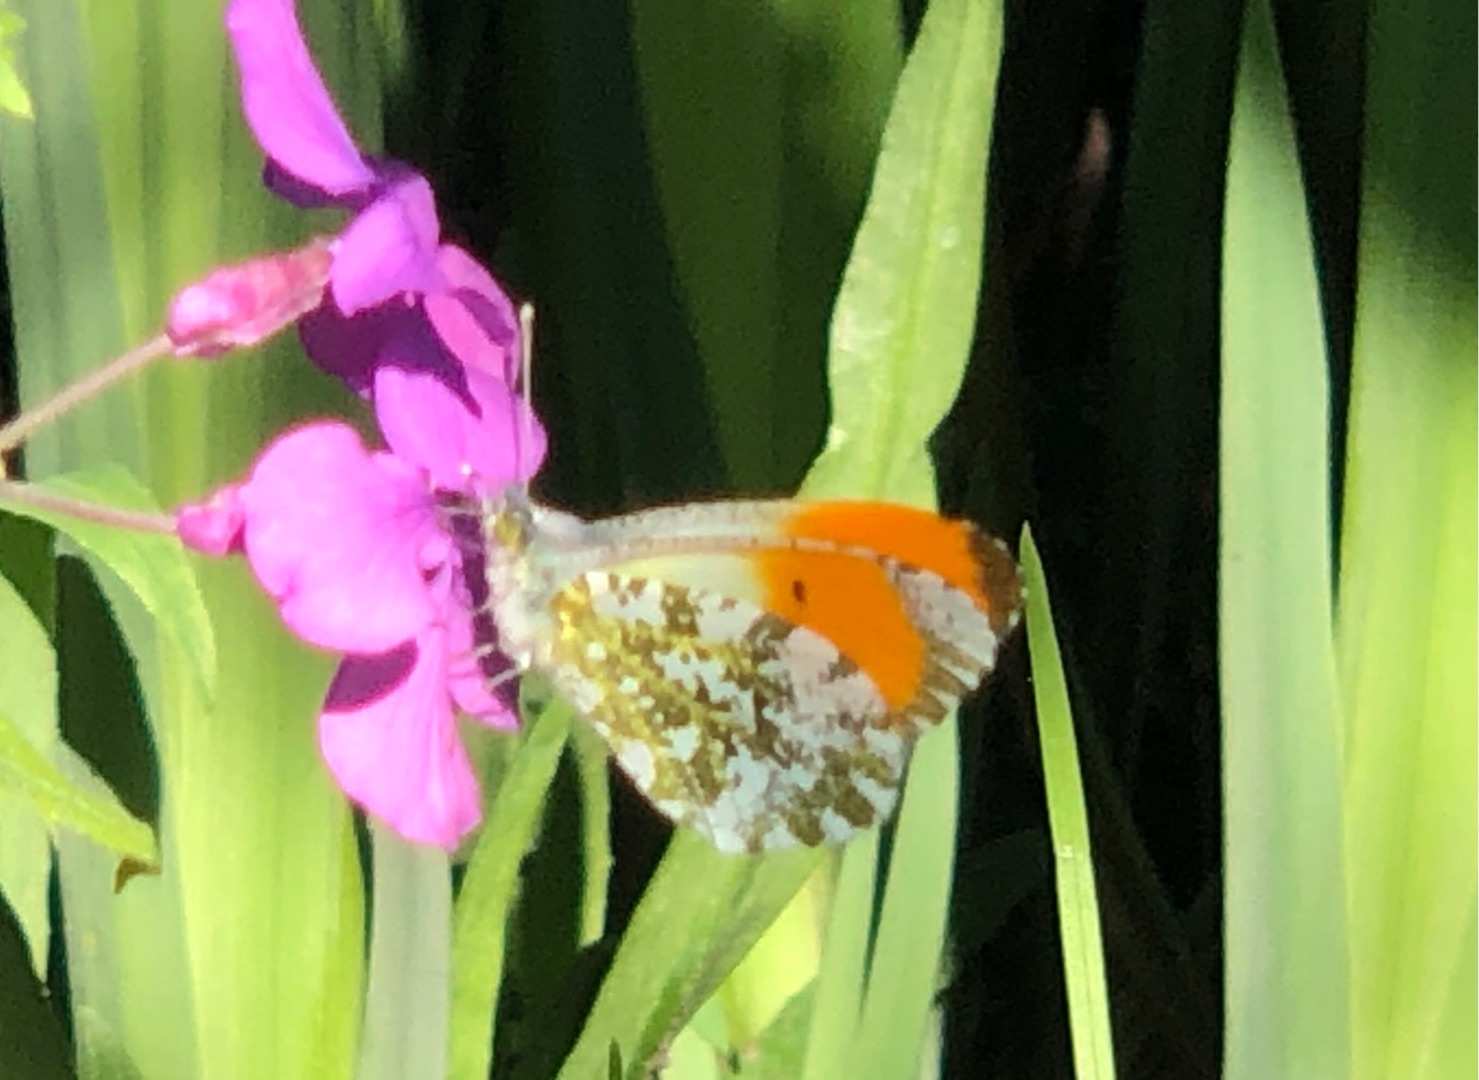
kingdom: Animalia
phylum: Arthropoda
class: Insecta
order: Lepidoptera
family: Pieridae
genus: Anthocharis
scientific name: Anthocharis cardamines
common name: Aurora
